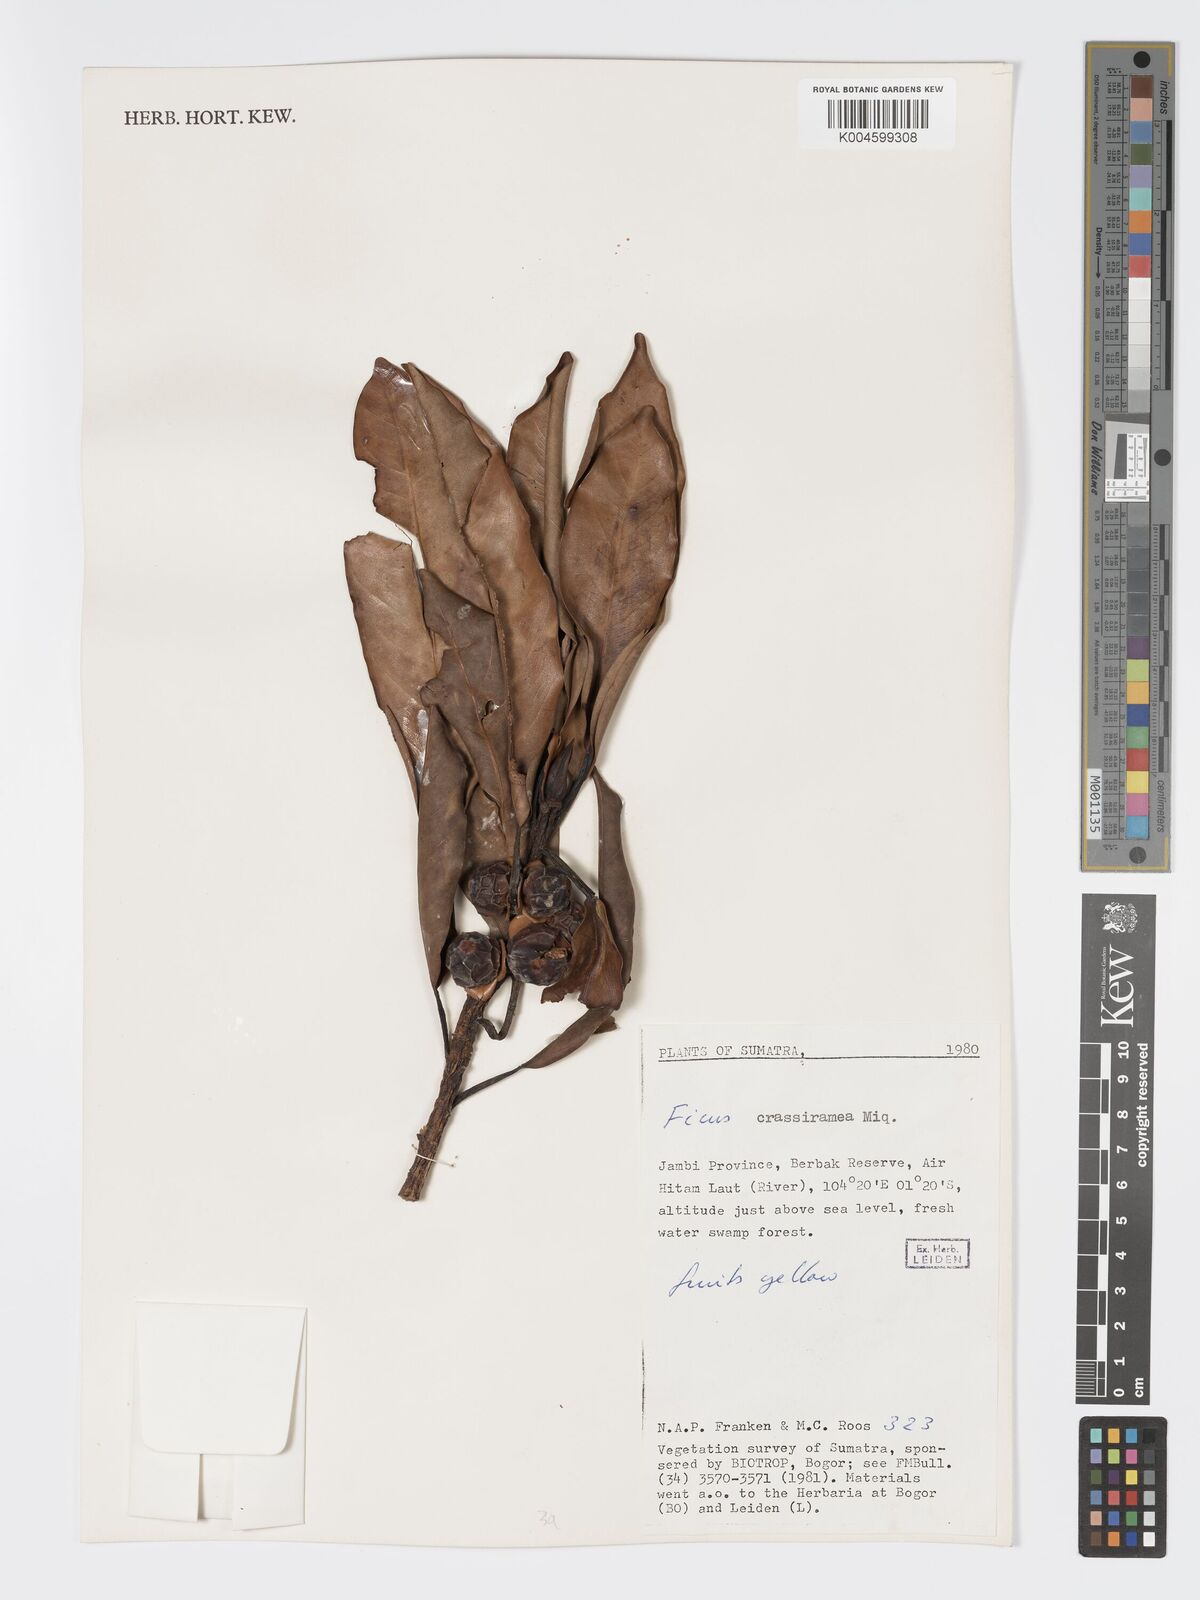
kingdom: Plantae
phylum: Tracheophyta
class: Magnoliopsida
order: Rosales
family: Moraceae
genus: Ficus
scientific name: Ficus crassiramea
